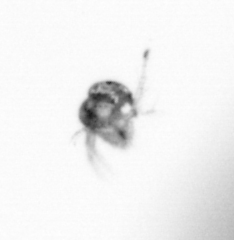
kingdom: Animalia
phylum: Arthropoda
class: Copepoda
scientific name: Copepoda
